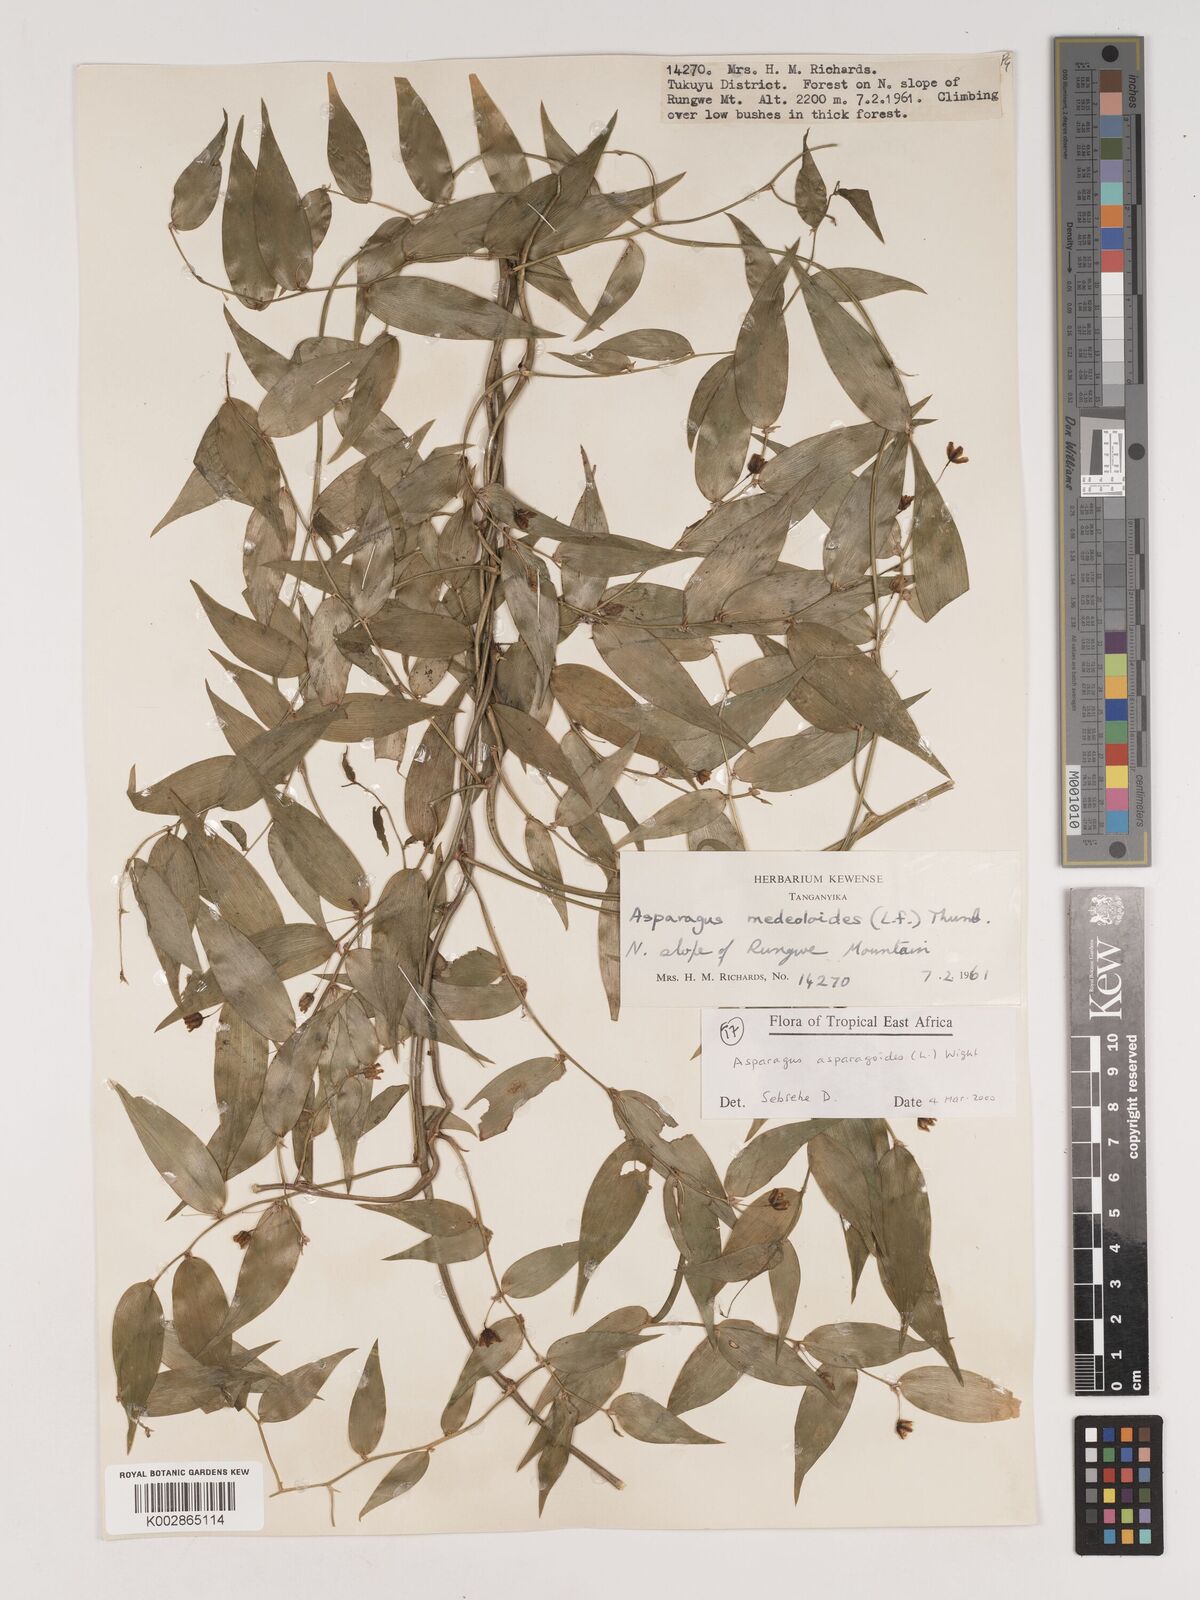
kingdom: Plantae
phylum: Tracheophyta
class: Liliopsida
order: Asparagales
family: Asparagaceae
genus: Asparagus
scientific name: Asparagus asparagoides
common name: African asparagus fern
